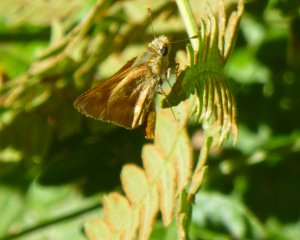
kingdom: Animalia
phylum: Arthropoda
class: Insecta
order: Lepidoptera
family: Hesperiidae
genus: Ochlodes
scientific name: Ochlodes sylvanoides
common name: Woodland Skipper
